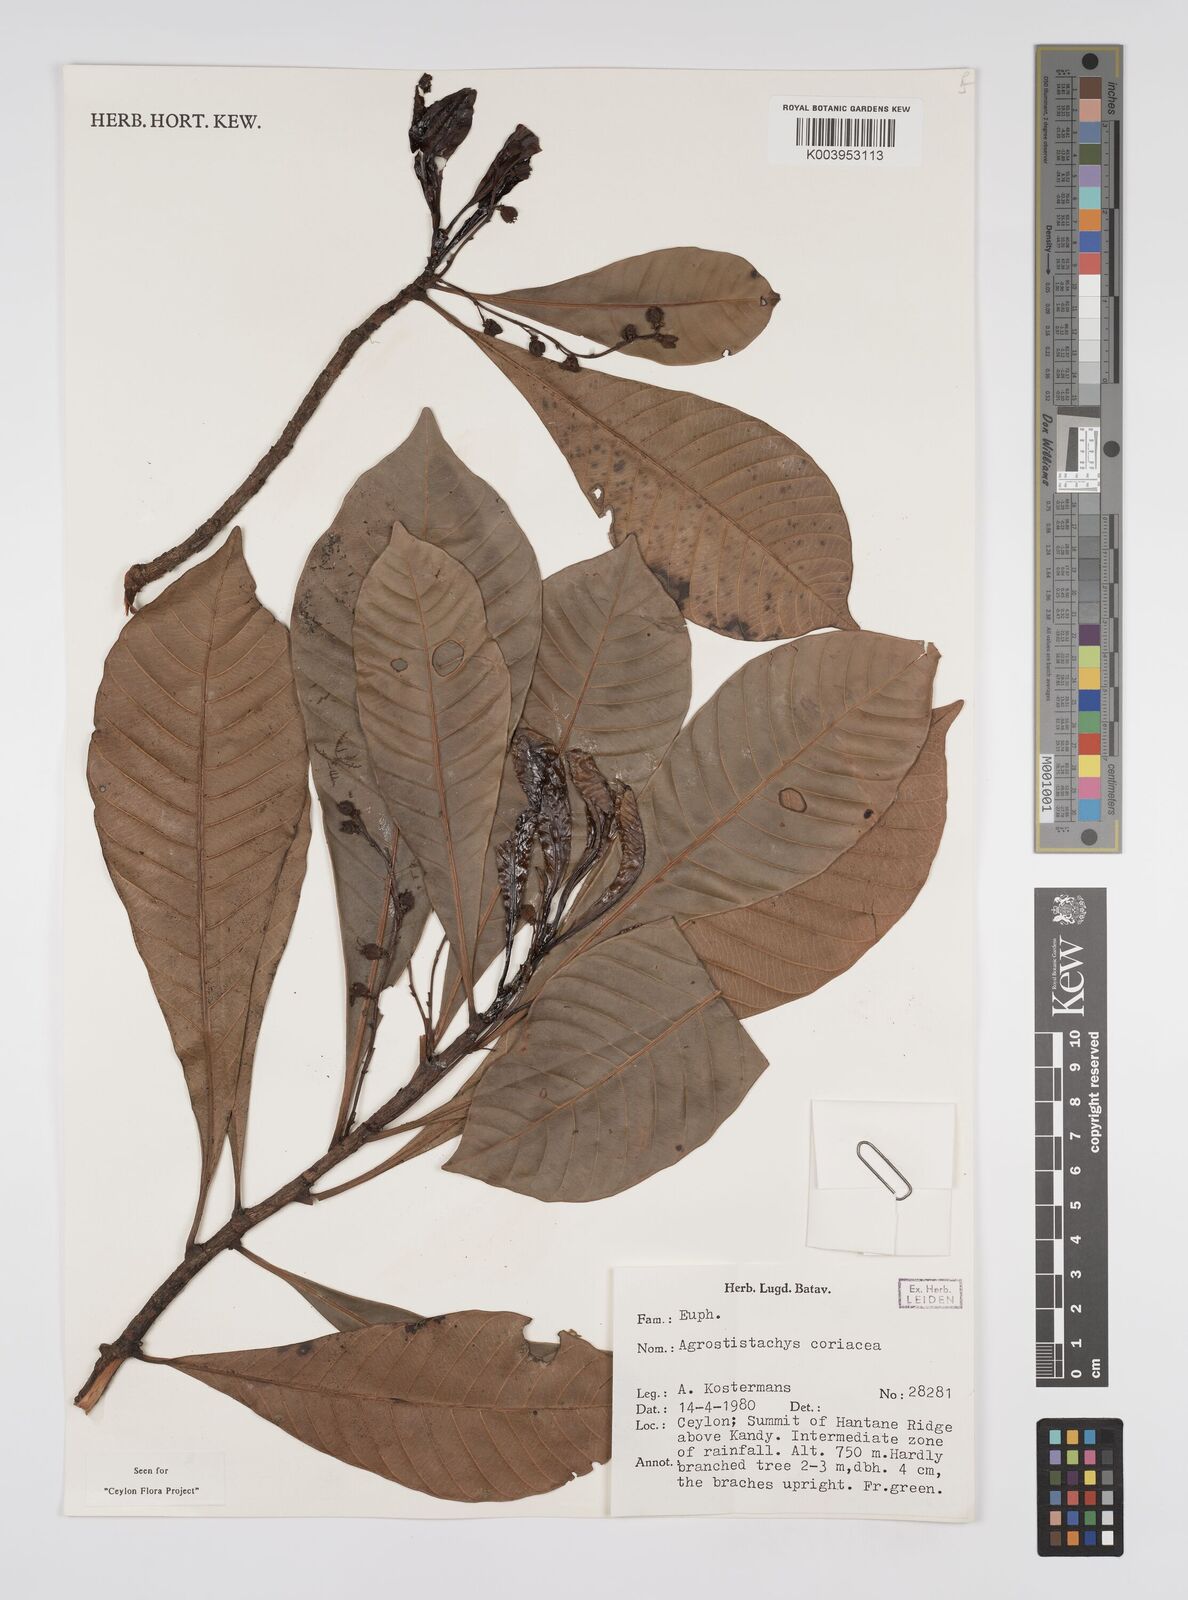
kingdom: Plantae
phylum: Tracheophyta
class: Magnoliopsida
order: Malpighiales
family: Euphorbiaceae
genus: Agrostistachys
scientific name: Agrostistachys borneensis
